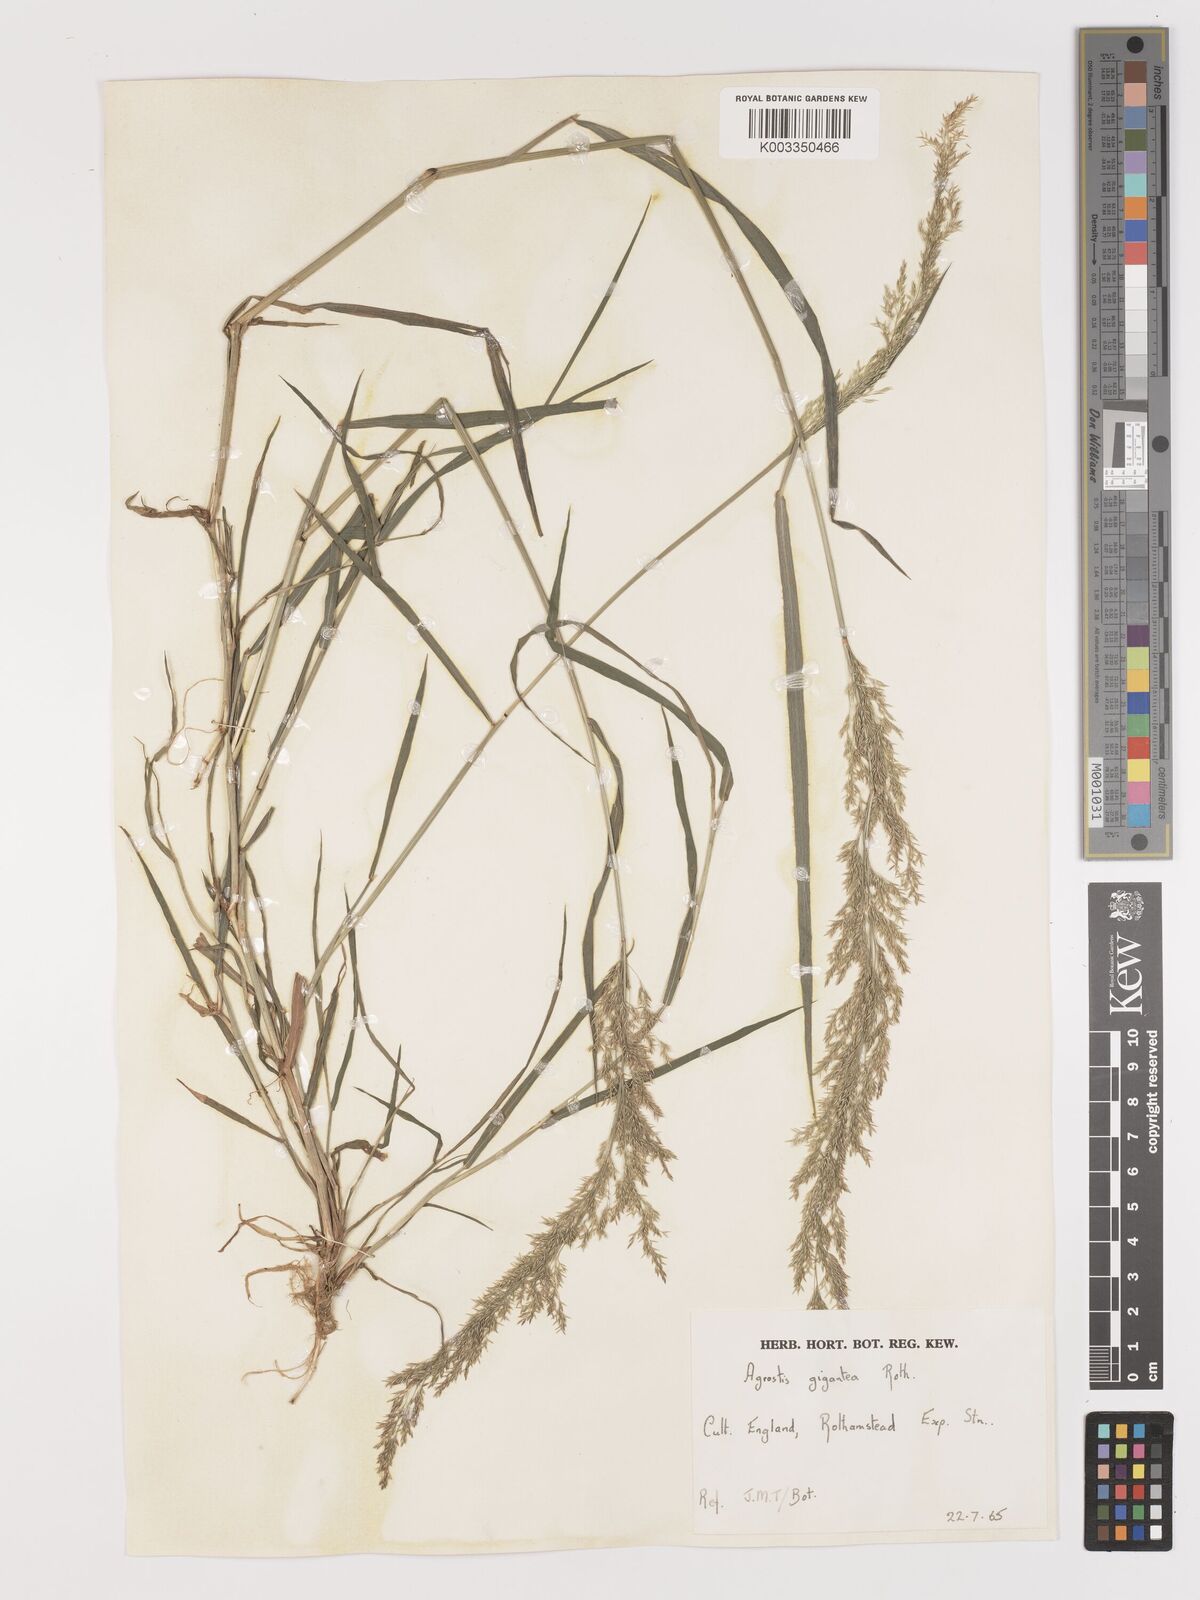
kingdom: Plantae
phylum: Tracheophyta
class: Liliopsida
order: Poales
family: Poaceae
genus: Agrostis
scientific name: Agrostis gigantea
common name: Black bent
